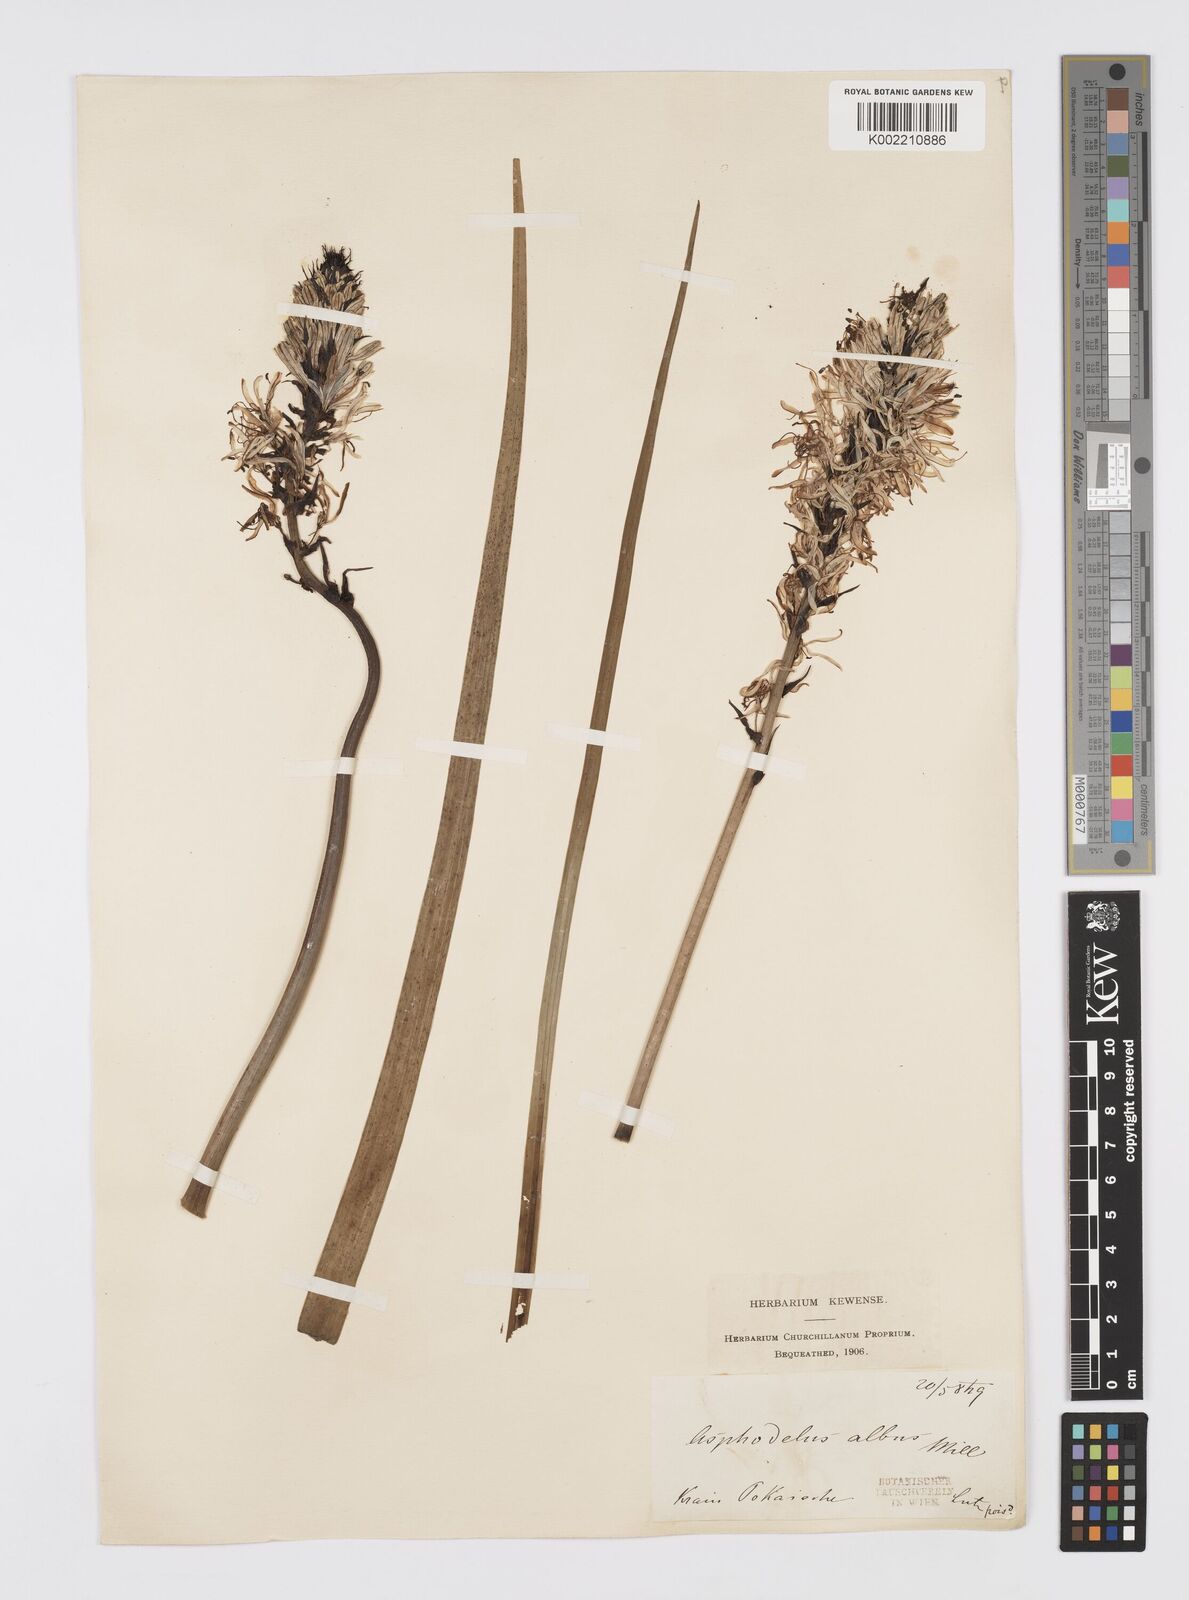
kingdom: Plantae
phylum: Tracheophyta
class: Liliopsida
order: Asparagales
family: Asphodelaceae
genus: Asphodelus
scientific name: Asphodelus albus
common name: White asphodel
